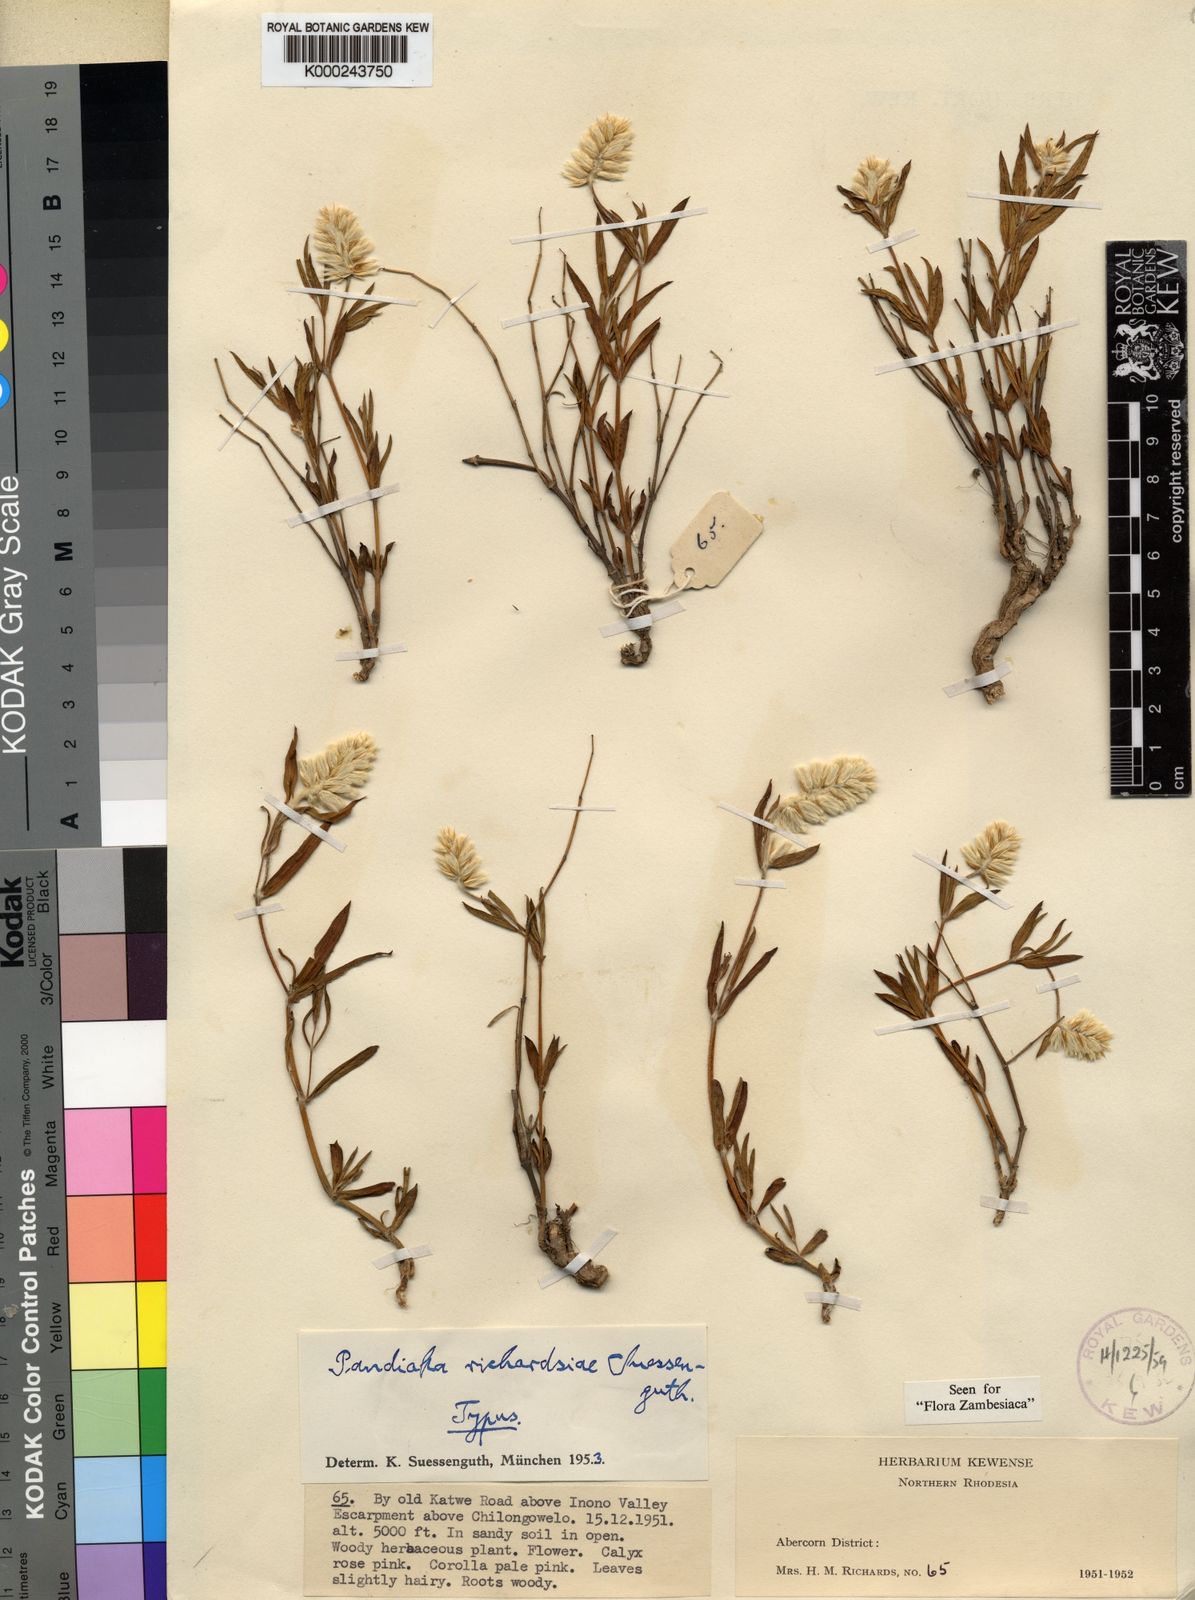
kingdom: Plantae
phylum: Tracheophyta
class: Magnoliopsida
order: Caryophyllales
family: Amaranthaceae
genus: Pandiaka
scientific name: Pandiaka richardsiae
